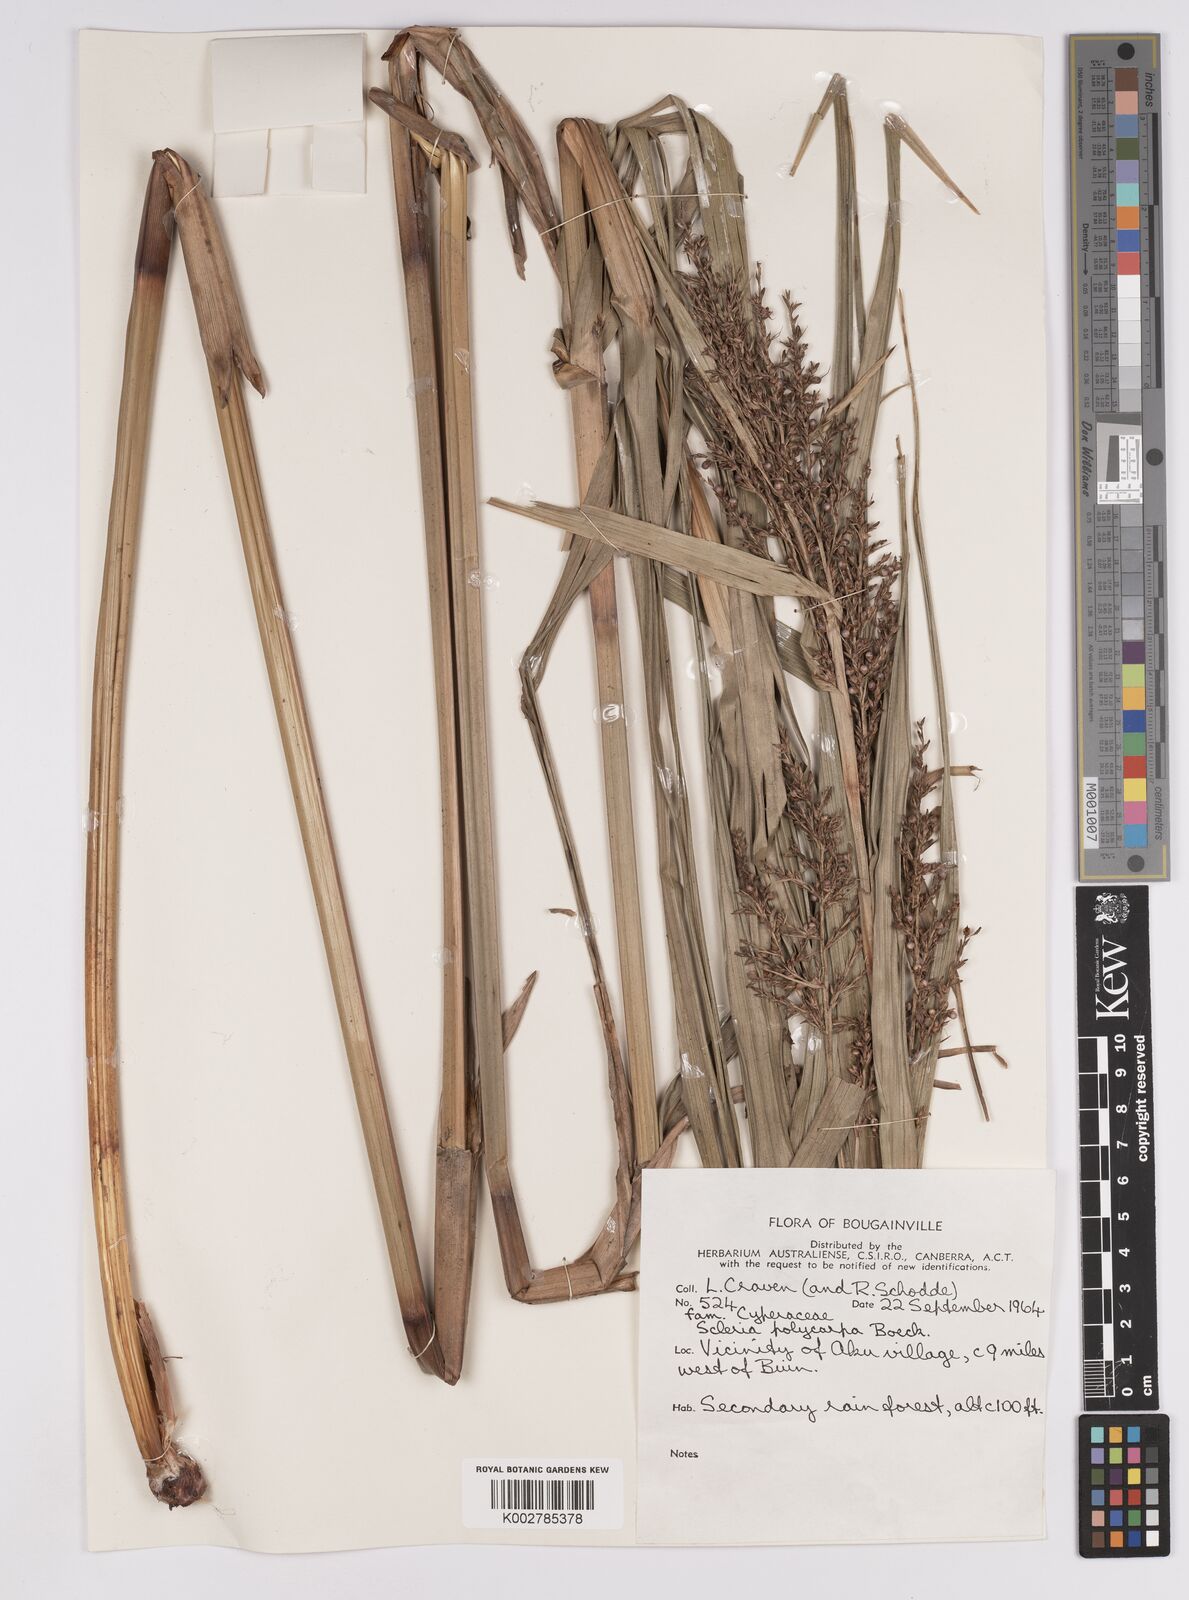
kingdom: Plantae
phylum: Tracheophyta
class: Liliopsida
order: Poales
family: Cyperaceae
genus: Scleria
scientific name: Scleria polycarpa
